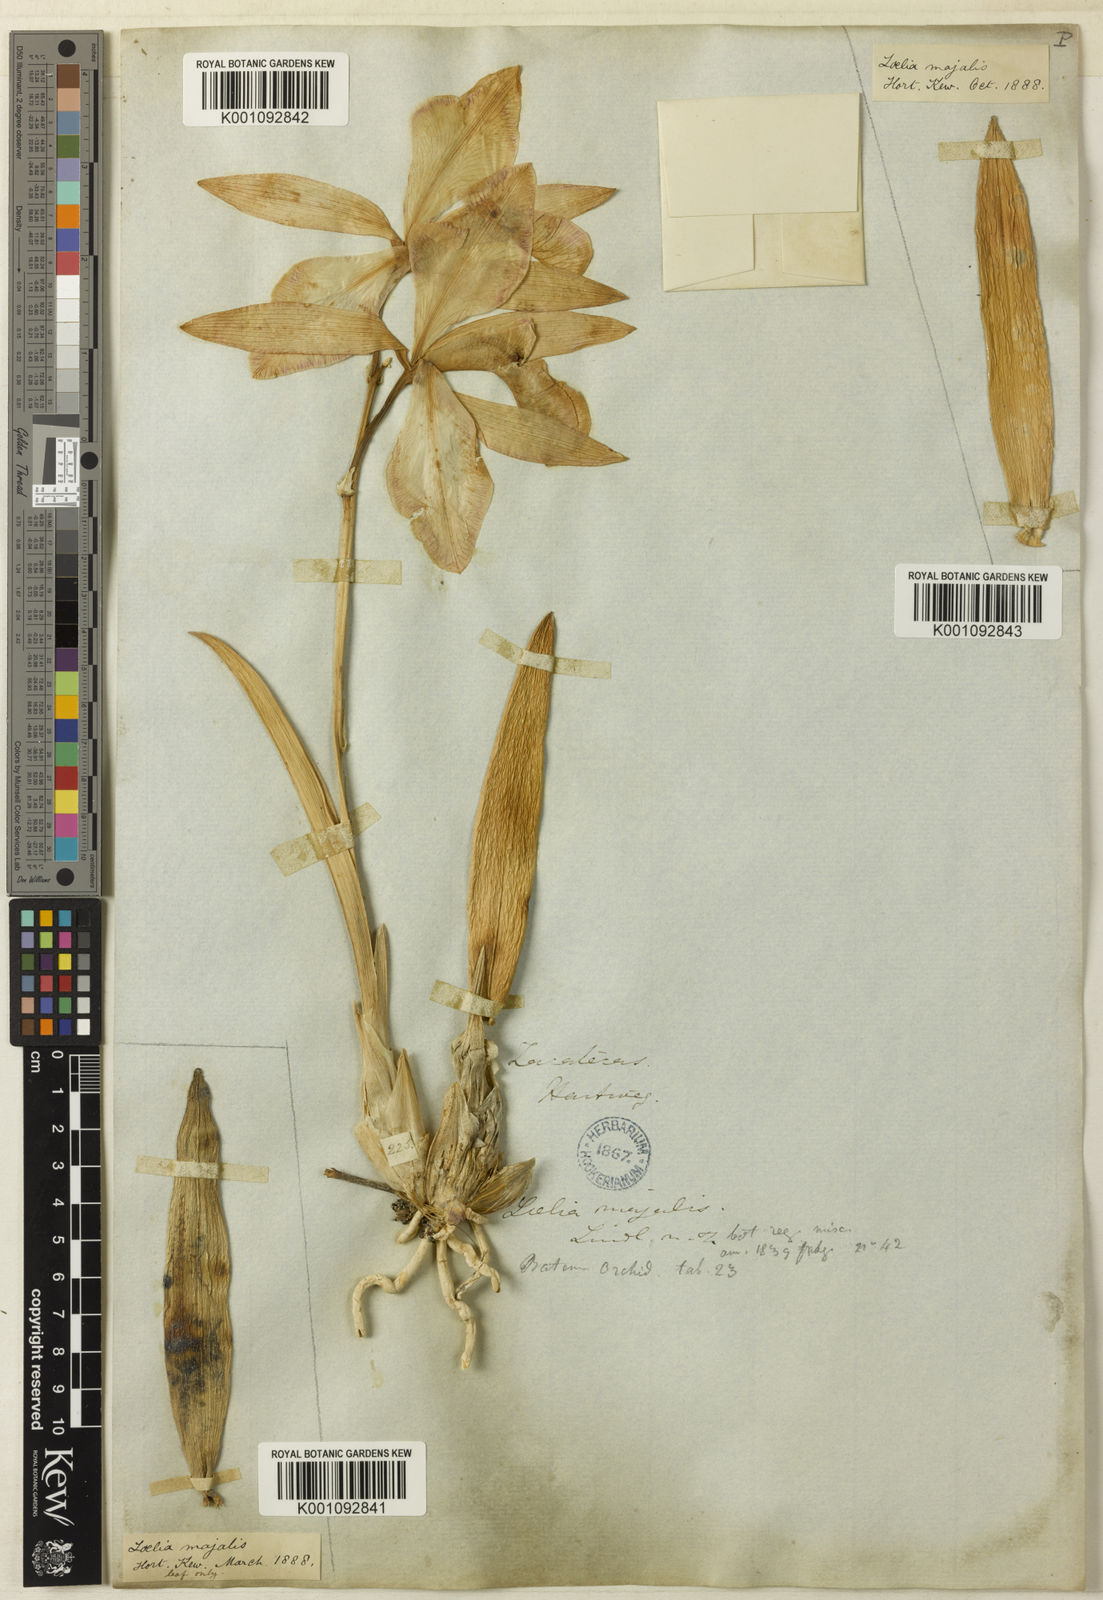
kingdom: Plantae
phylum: Tracheophyta
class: Liliopsida
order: Asparagales
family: Orchidaceae
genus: Laelia
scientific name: Laelia speciosa
